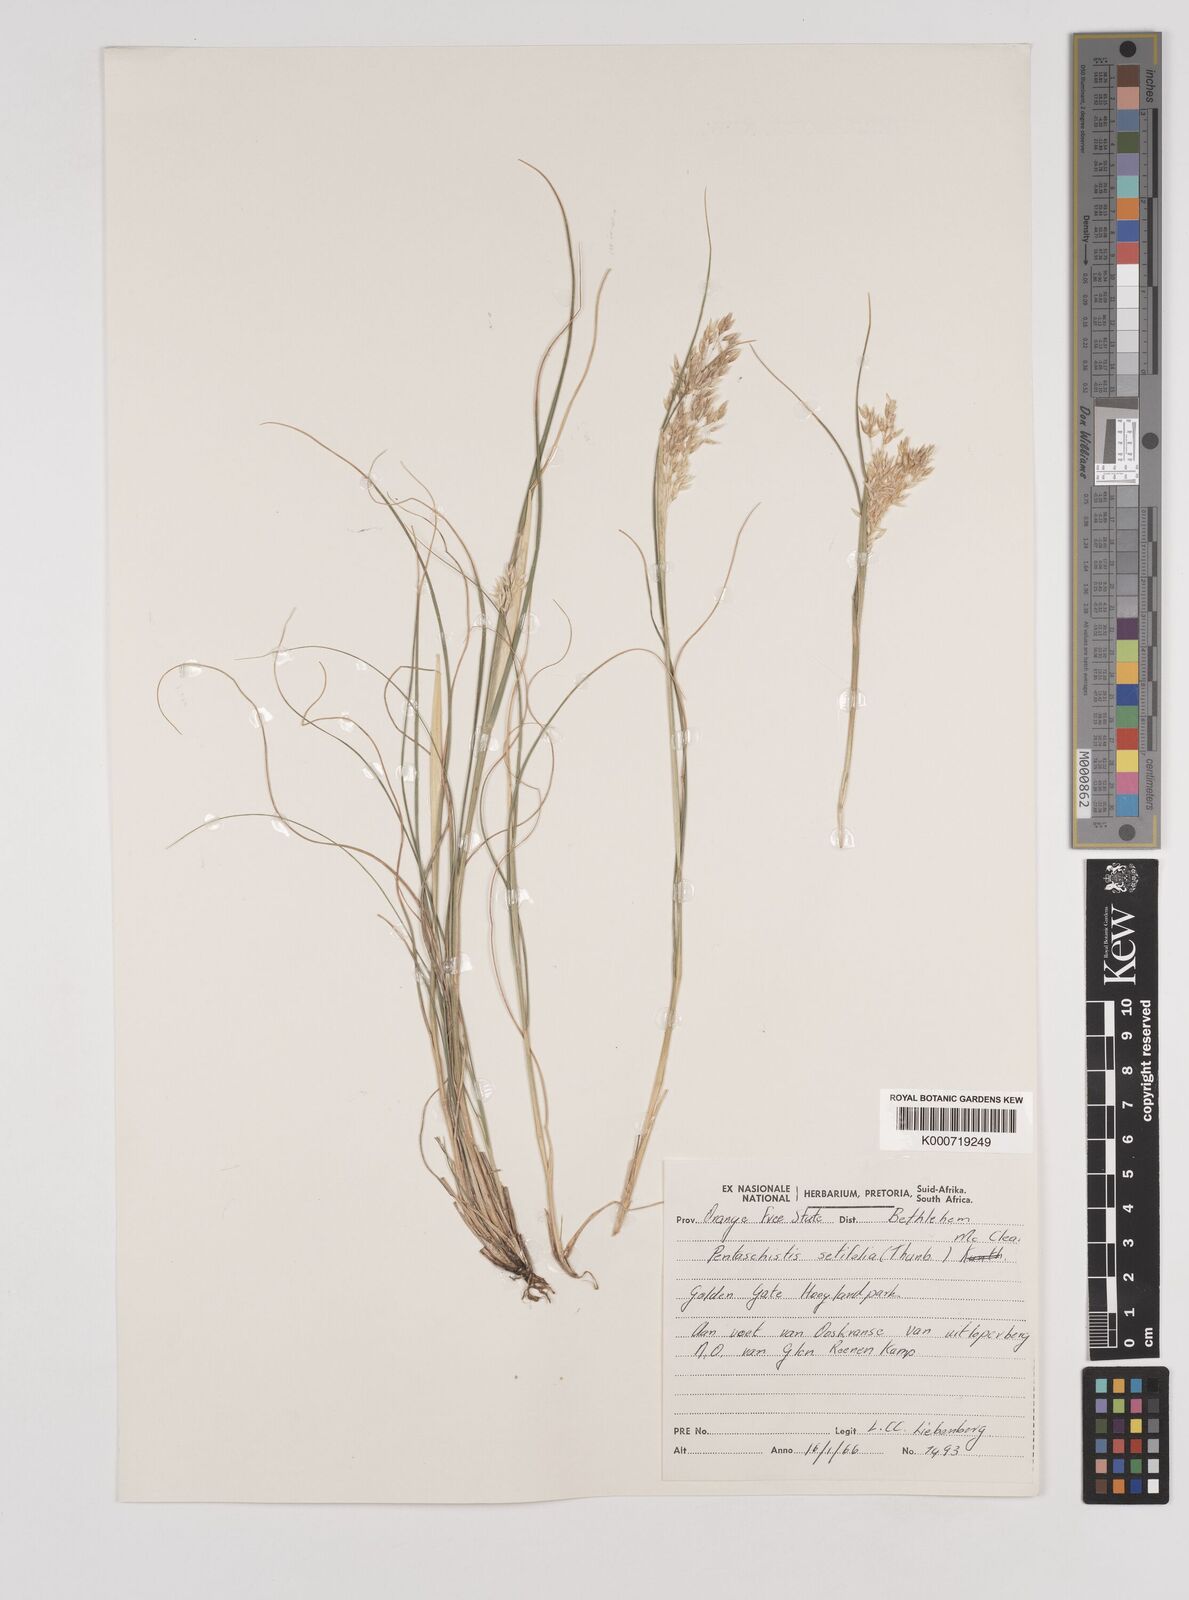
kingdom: Plantae
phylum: Tracheophyta
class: Liliopsida
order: Poales
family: Poaceae
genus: Pentameris
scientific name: Pentameris setifolia
